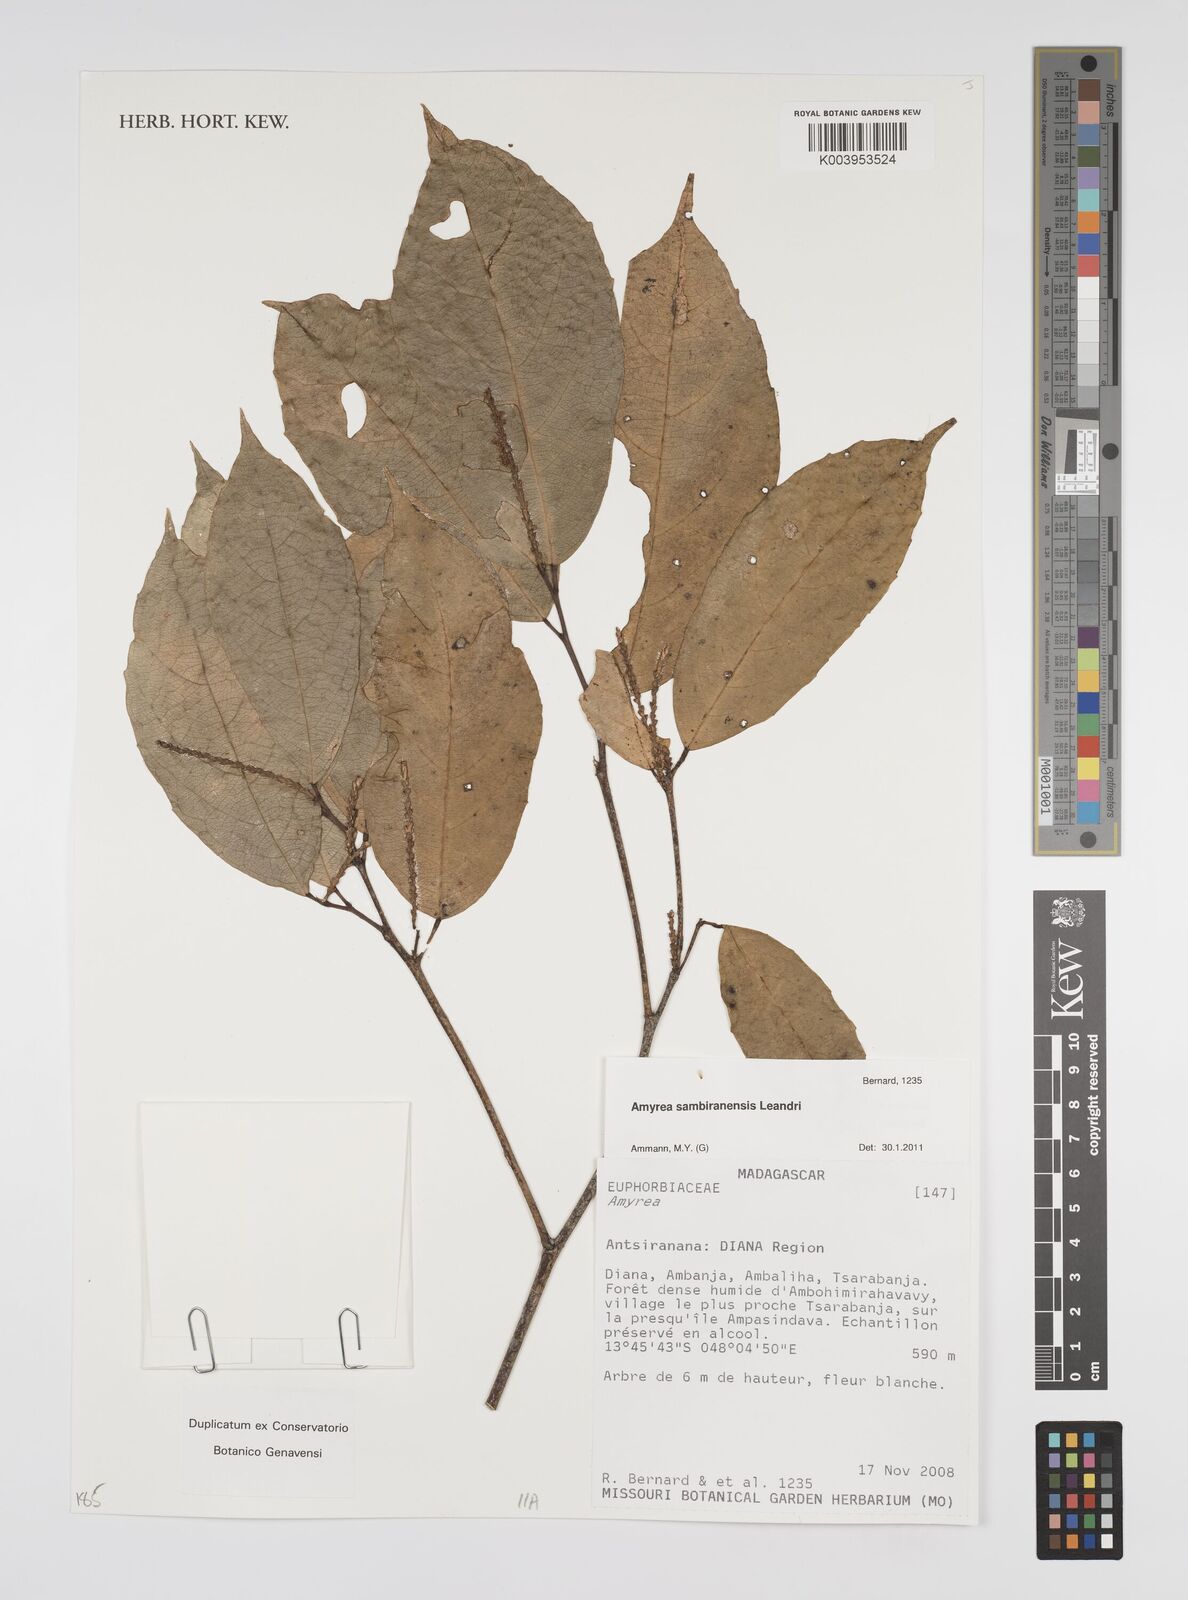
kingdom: Plantae
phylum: Tracheophyta
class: Magnoliopsida
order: Malpighiales
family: Euphorbiaceae
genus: Amyrea
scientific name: Amyrea
